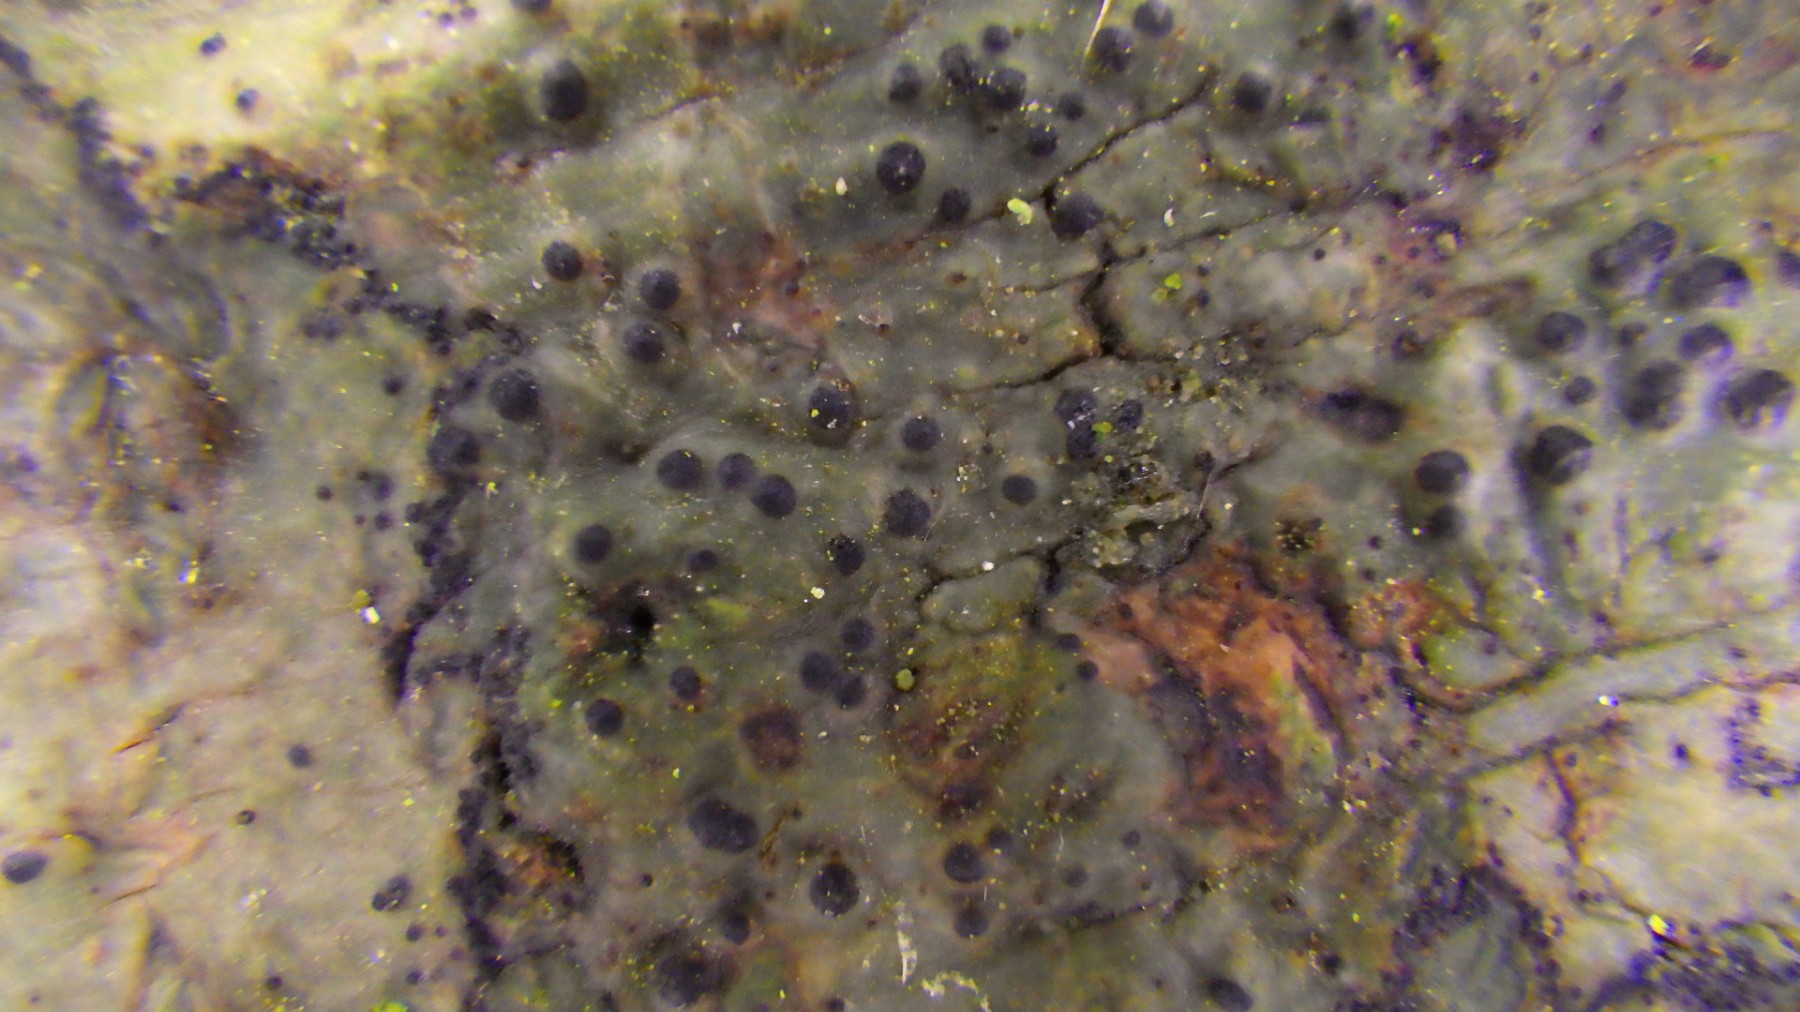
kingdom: Fungi
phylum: Ascomycota
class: Eurotiomycetes
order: Pyrenulales
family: Pyrenulaceae
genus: Pyrenula
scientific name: Pyrenula nitida
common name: glinsende kernelav
